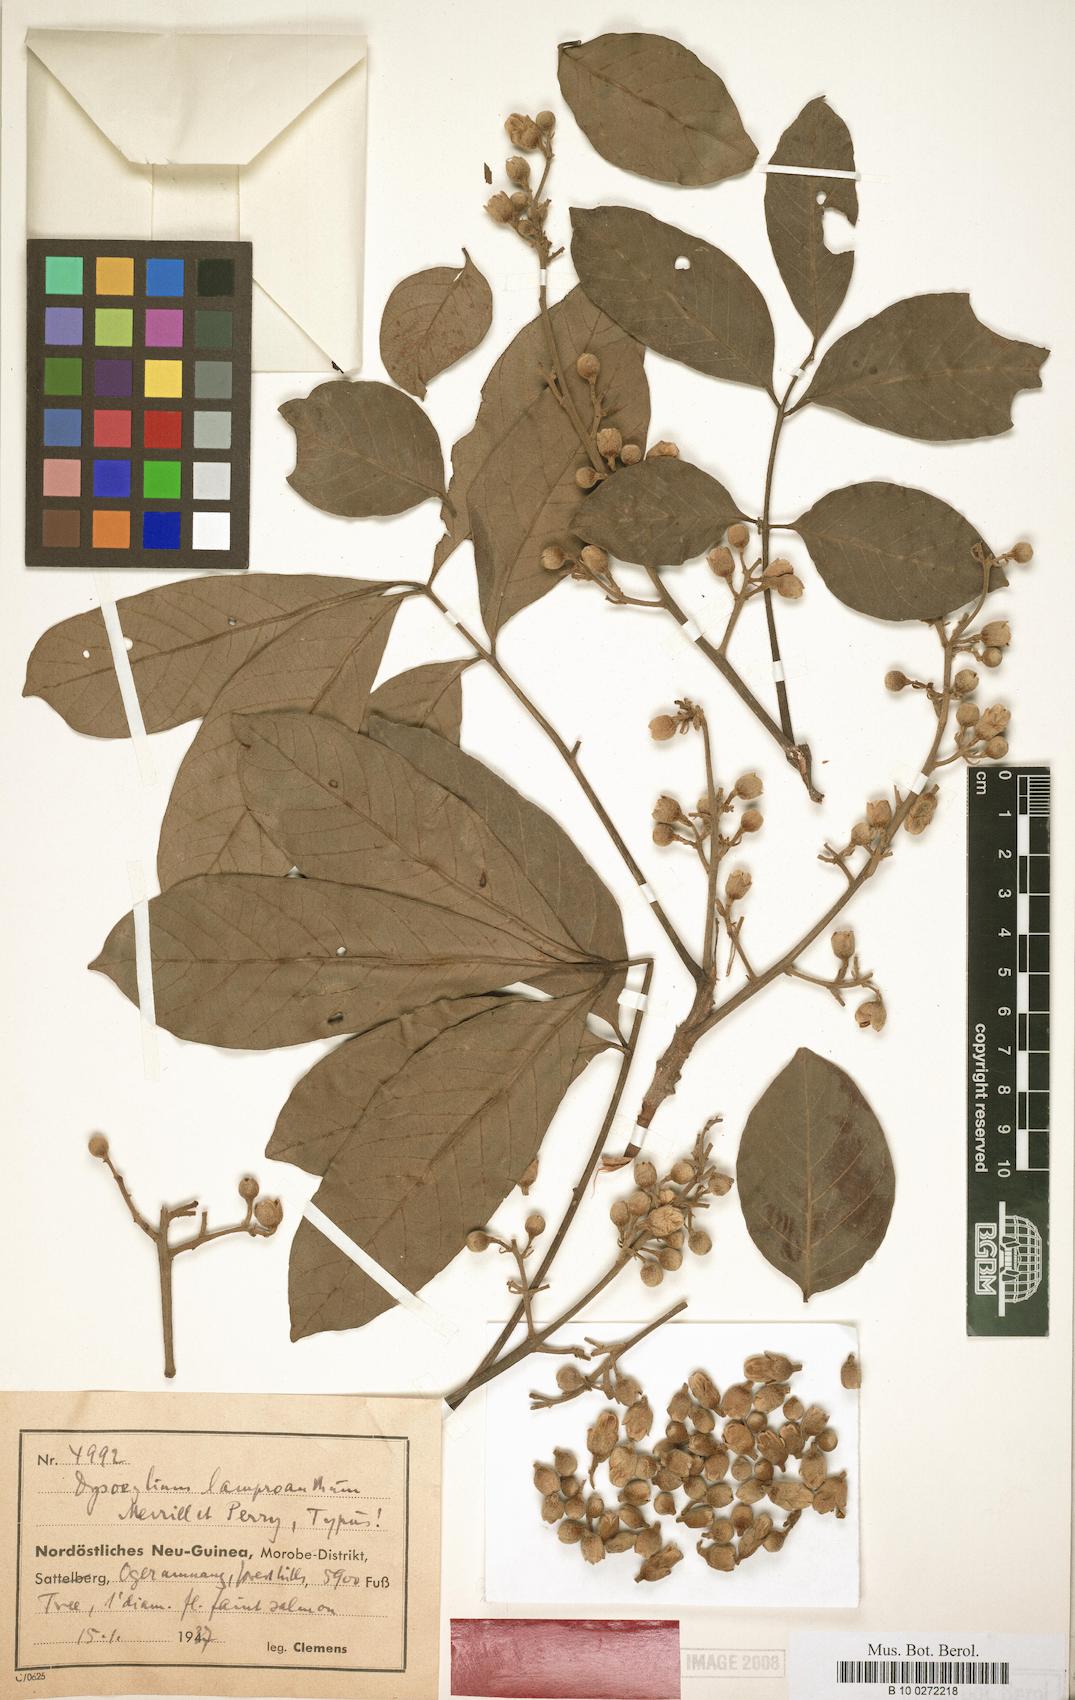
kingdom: Plantae
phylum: Tracheophyta
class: Magnoliopsida
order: Sapindales
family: Meliaceae
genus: Didymocheton
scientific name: Didymocheton setosus
